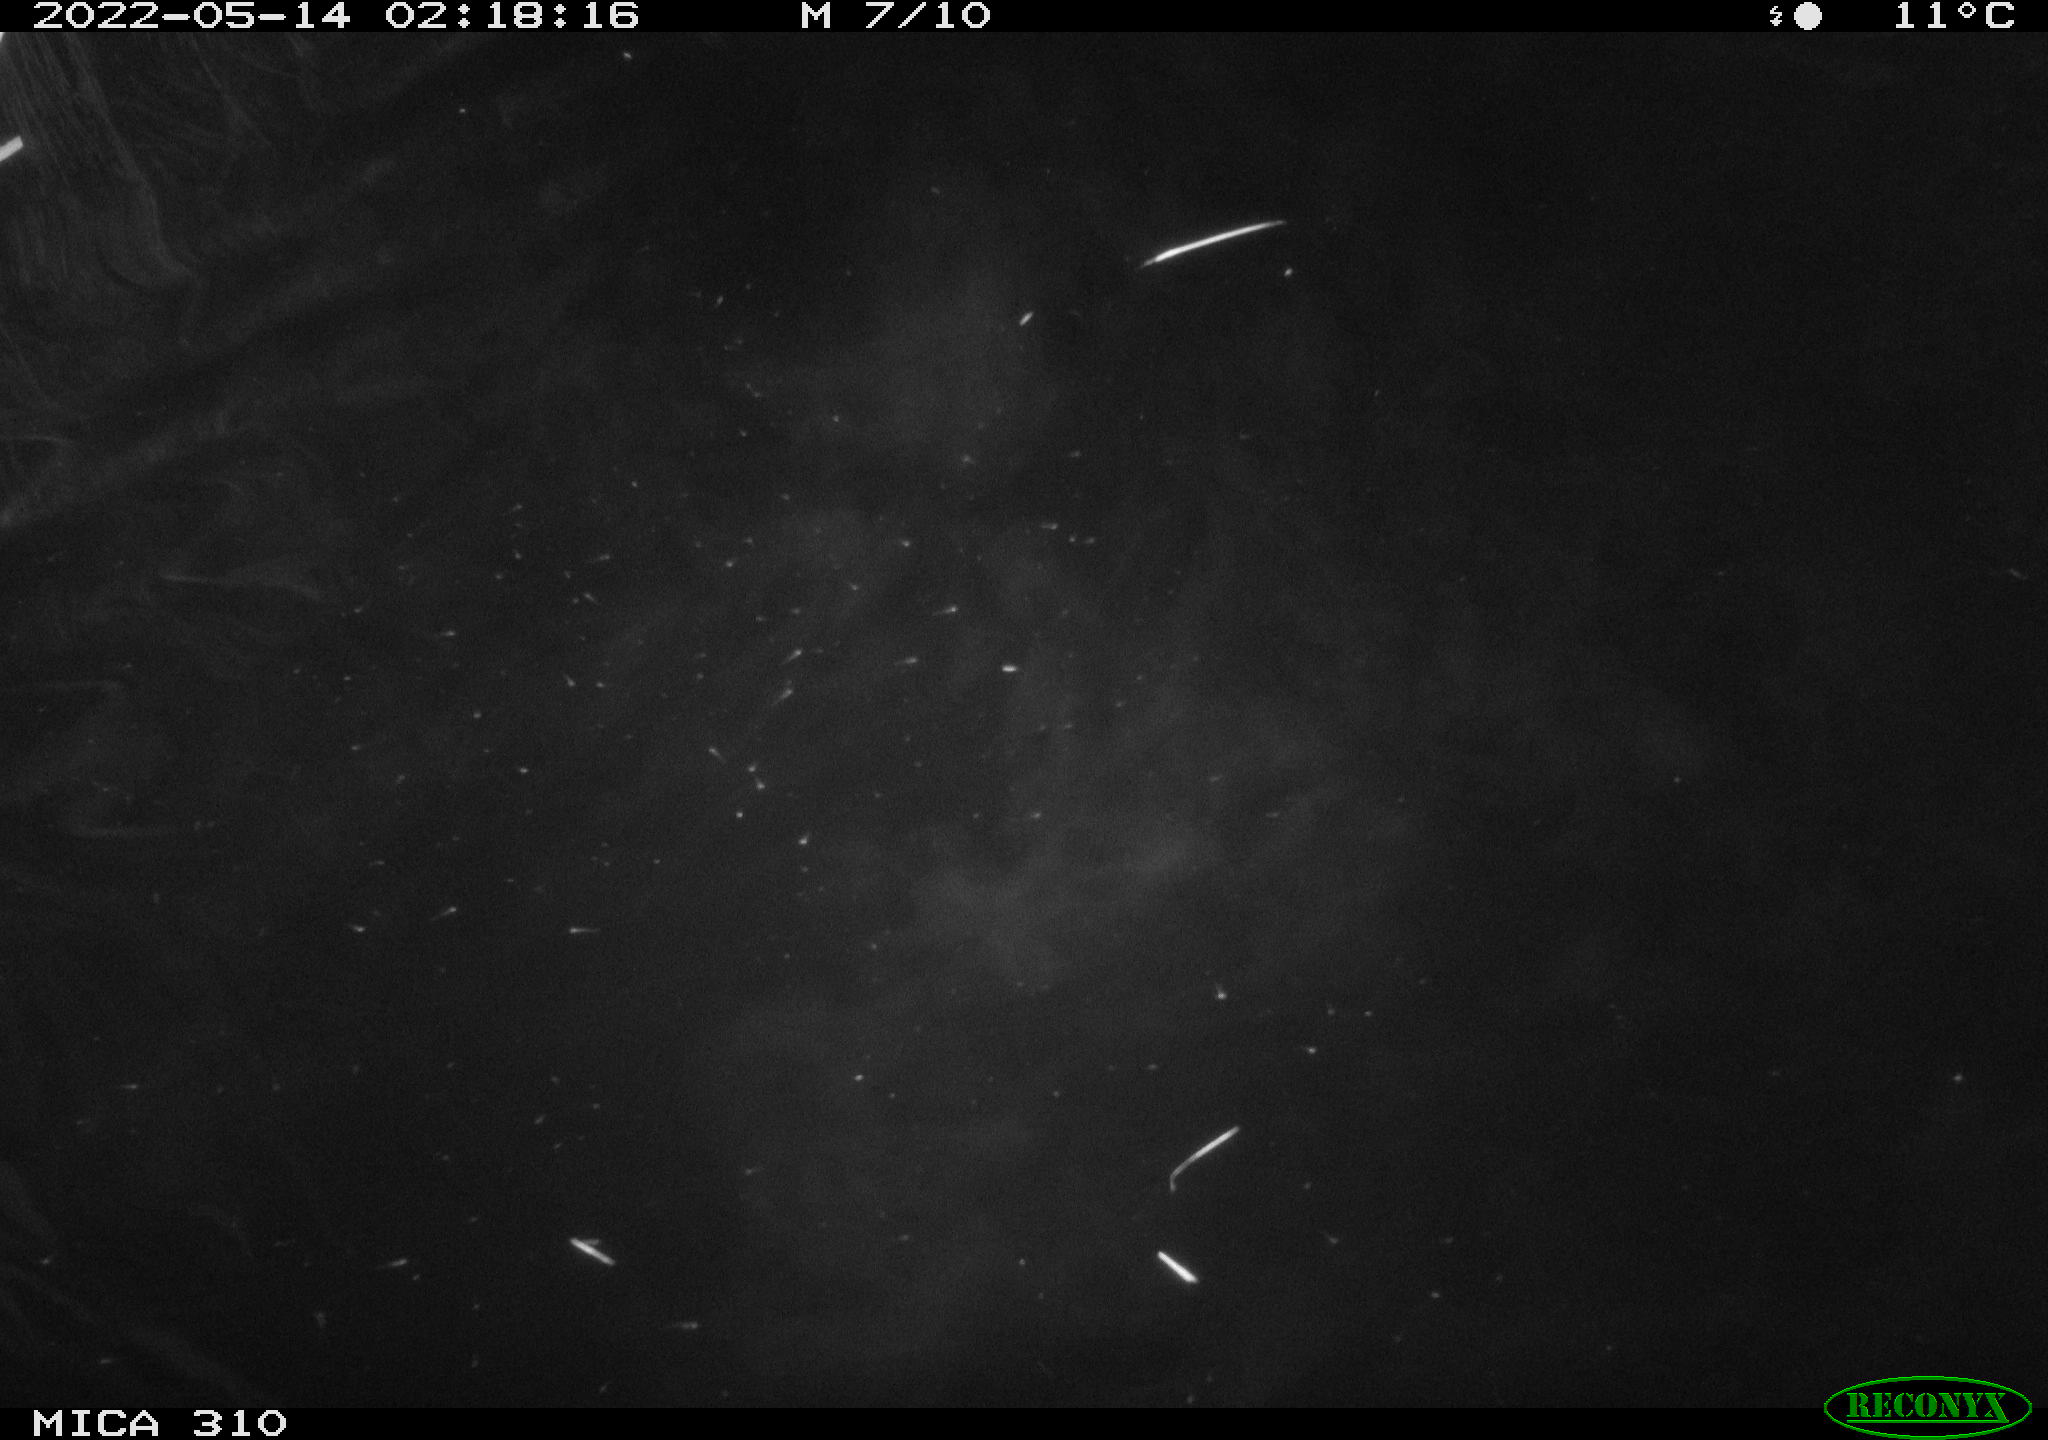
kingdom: Animalia
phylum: Chordata
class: Aves
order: Anseriformes
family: Anatidae
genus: Anas
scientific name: Anas platyrhynchos
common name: Mallard
